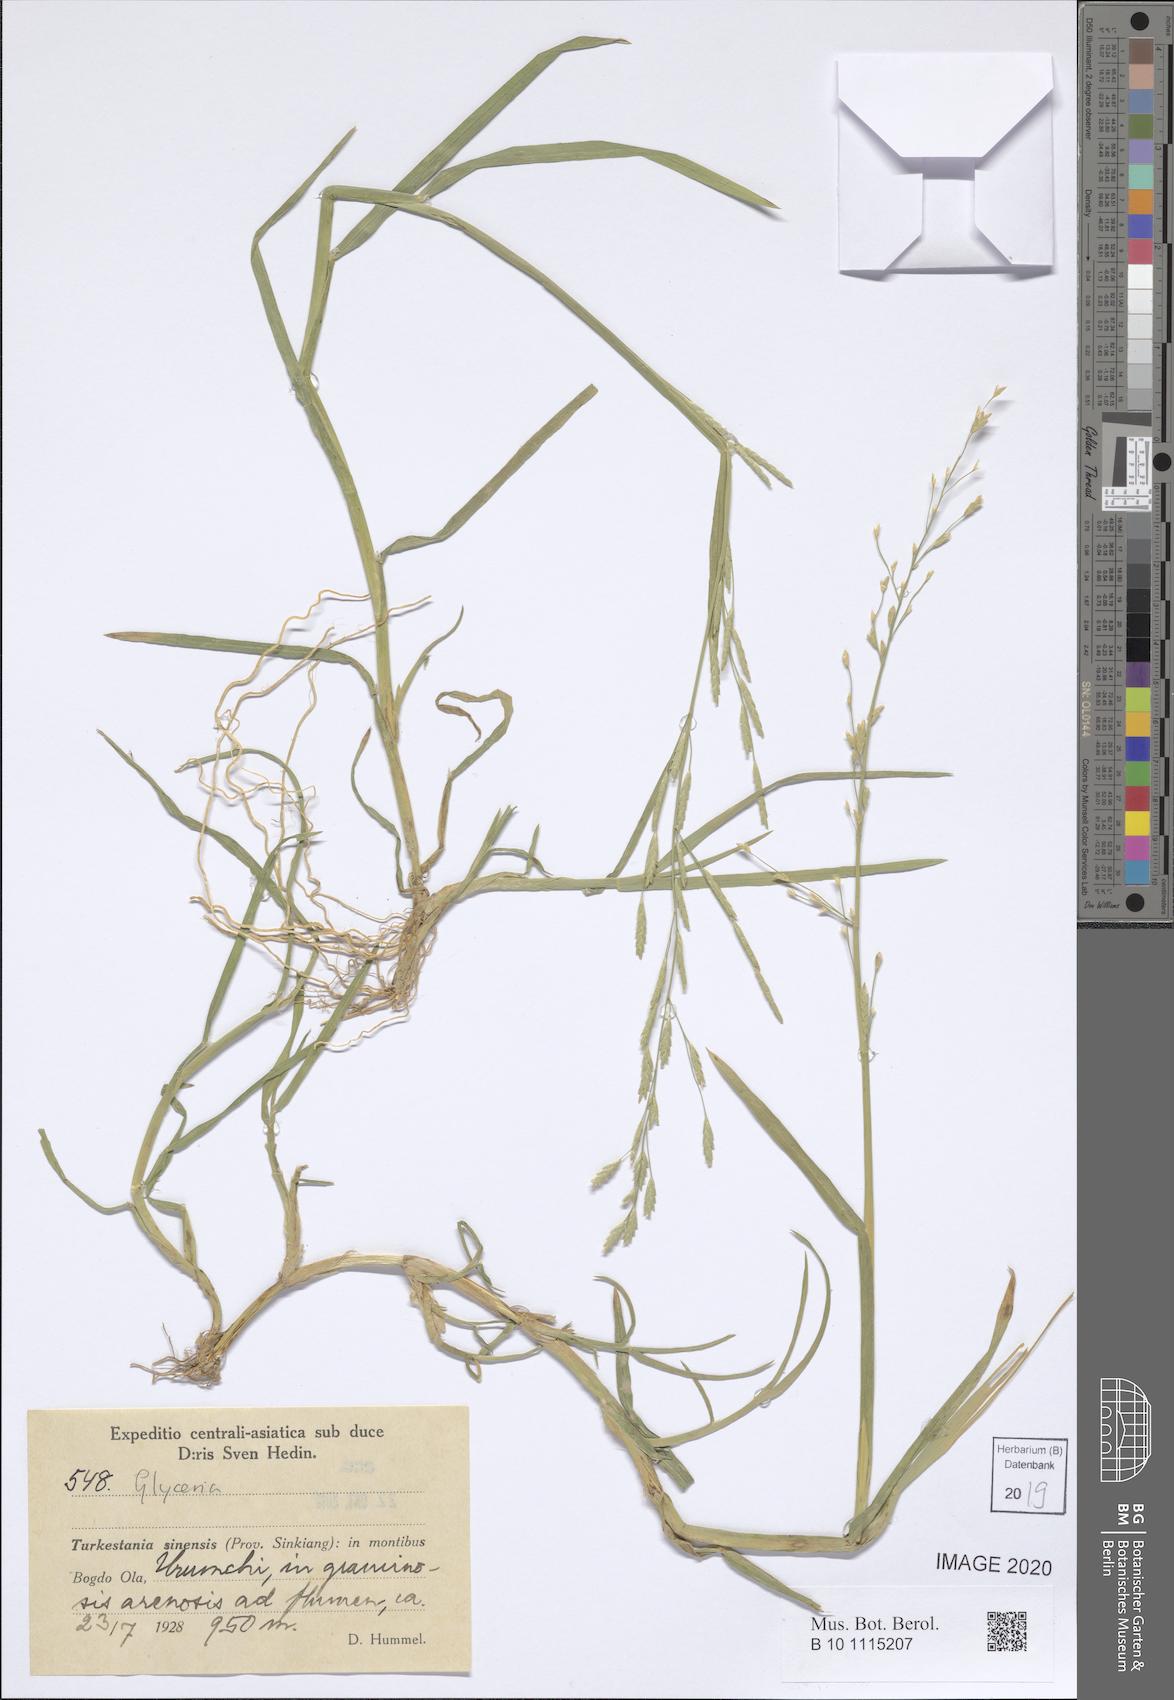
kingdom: Plantae
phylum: Tracheophyta
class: Liliopsida
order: Poales
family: Poaceae
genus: Glyceria
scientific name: Glyceria
